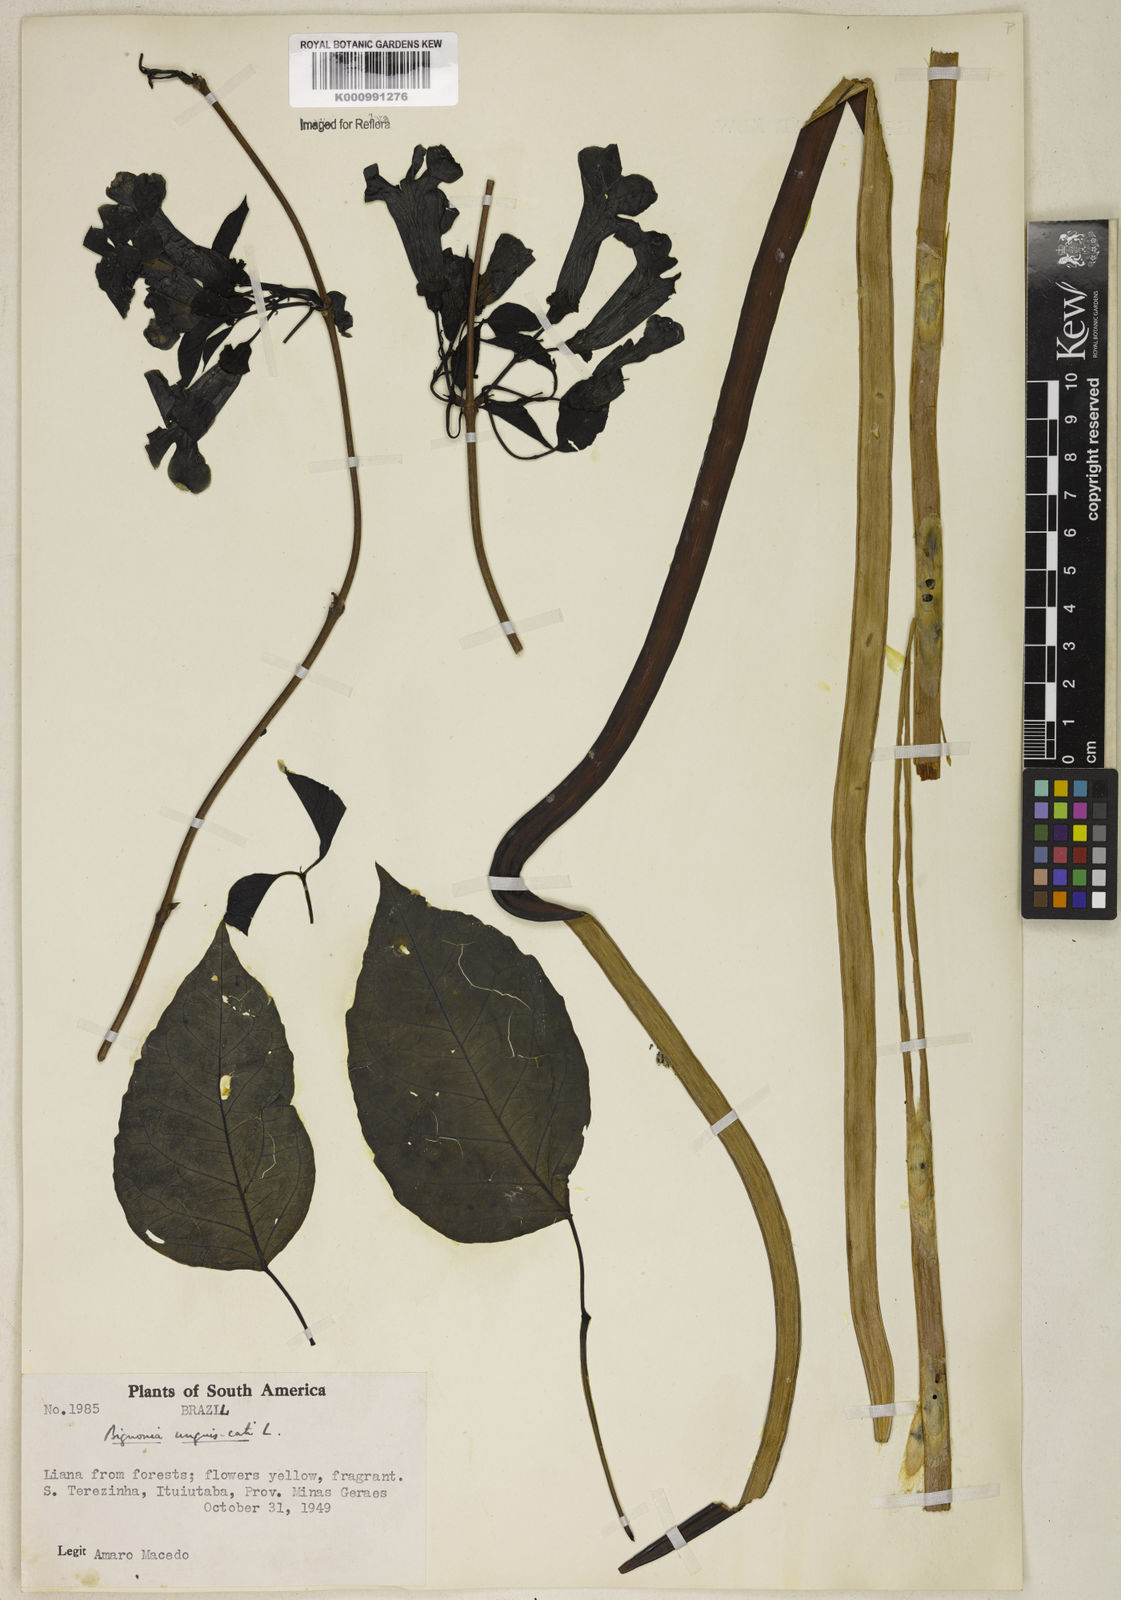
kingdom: Plantae
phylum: Tracheophyta
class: Magnoliopsida
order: Lamiales
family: Bignoniaceae
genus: Dolichandra
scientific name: Dolichandra unguis-cati
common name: Catclaw vine
